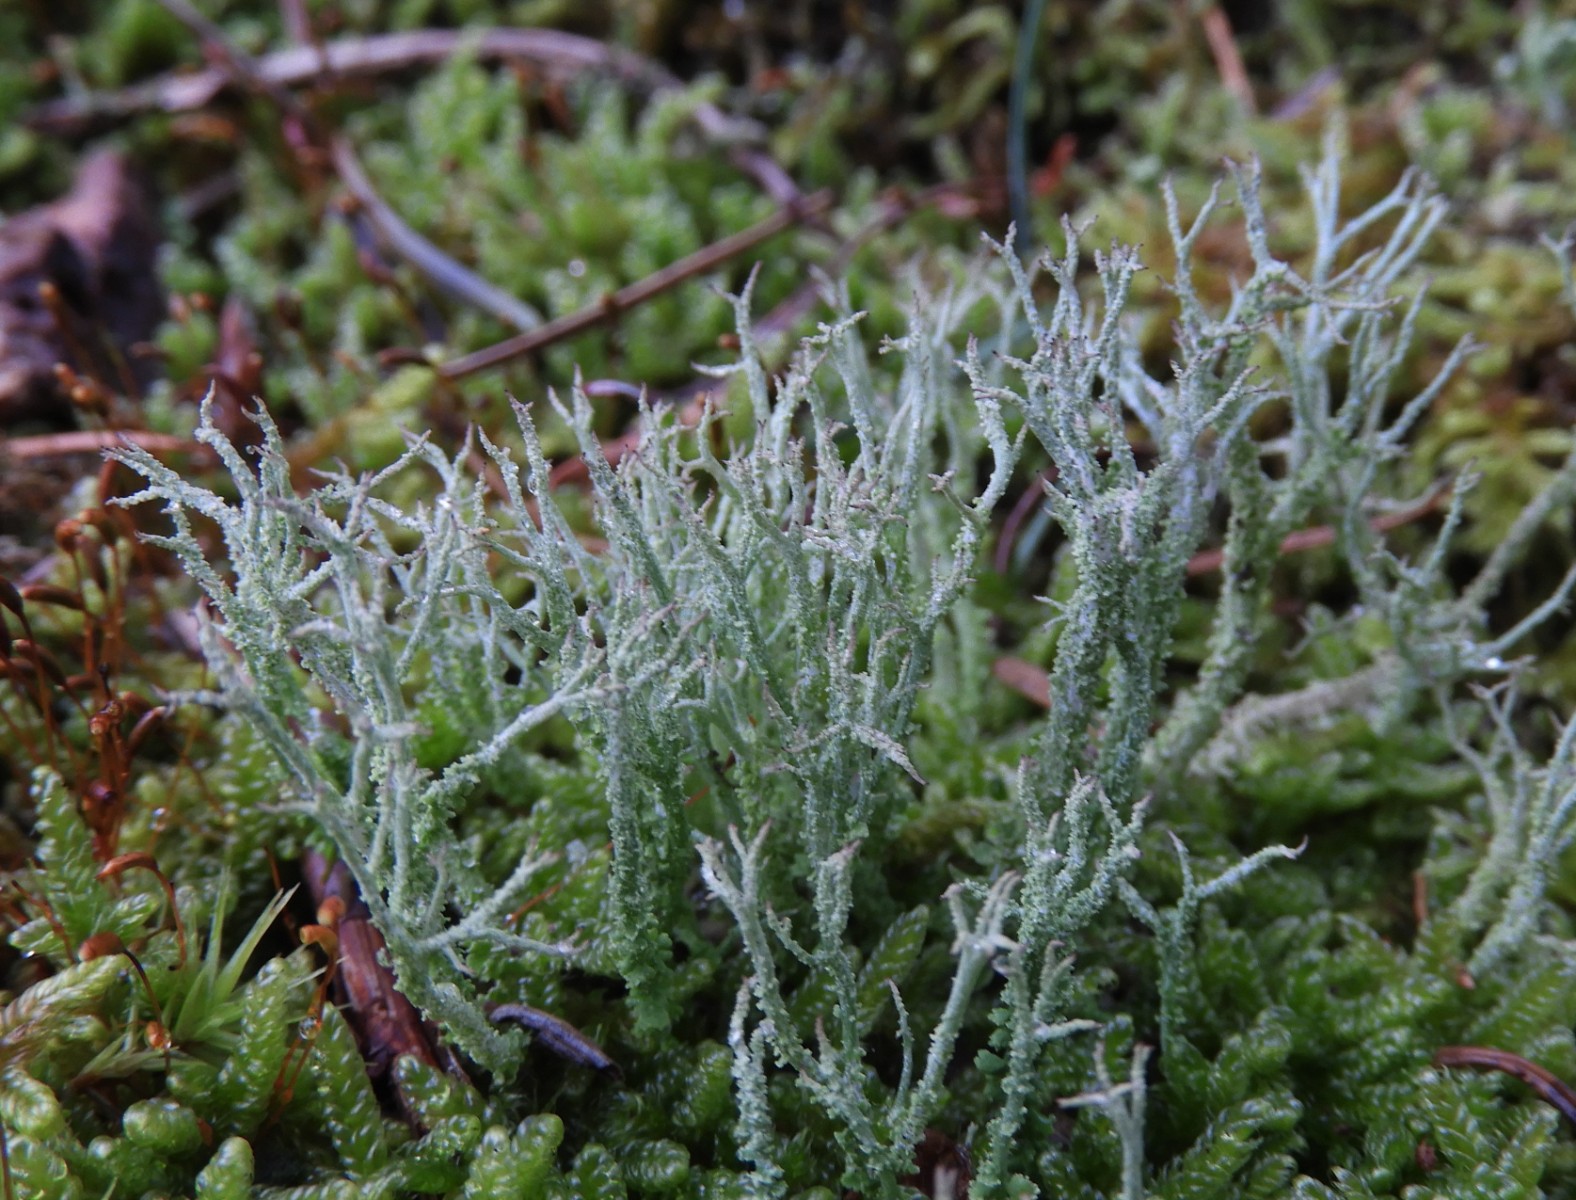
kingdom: Fungi
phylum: Ascomycota
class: Lecanoromycetes
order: Lecanorales
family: Cladoniaceae
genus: Cladonia
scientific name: Cladonia scabriuscula
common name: ru bægerlav
